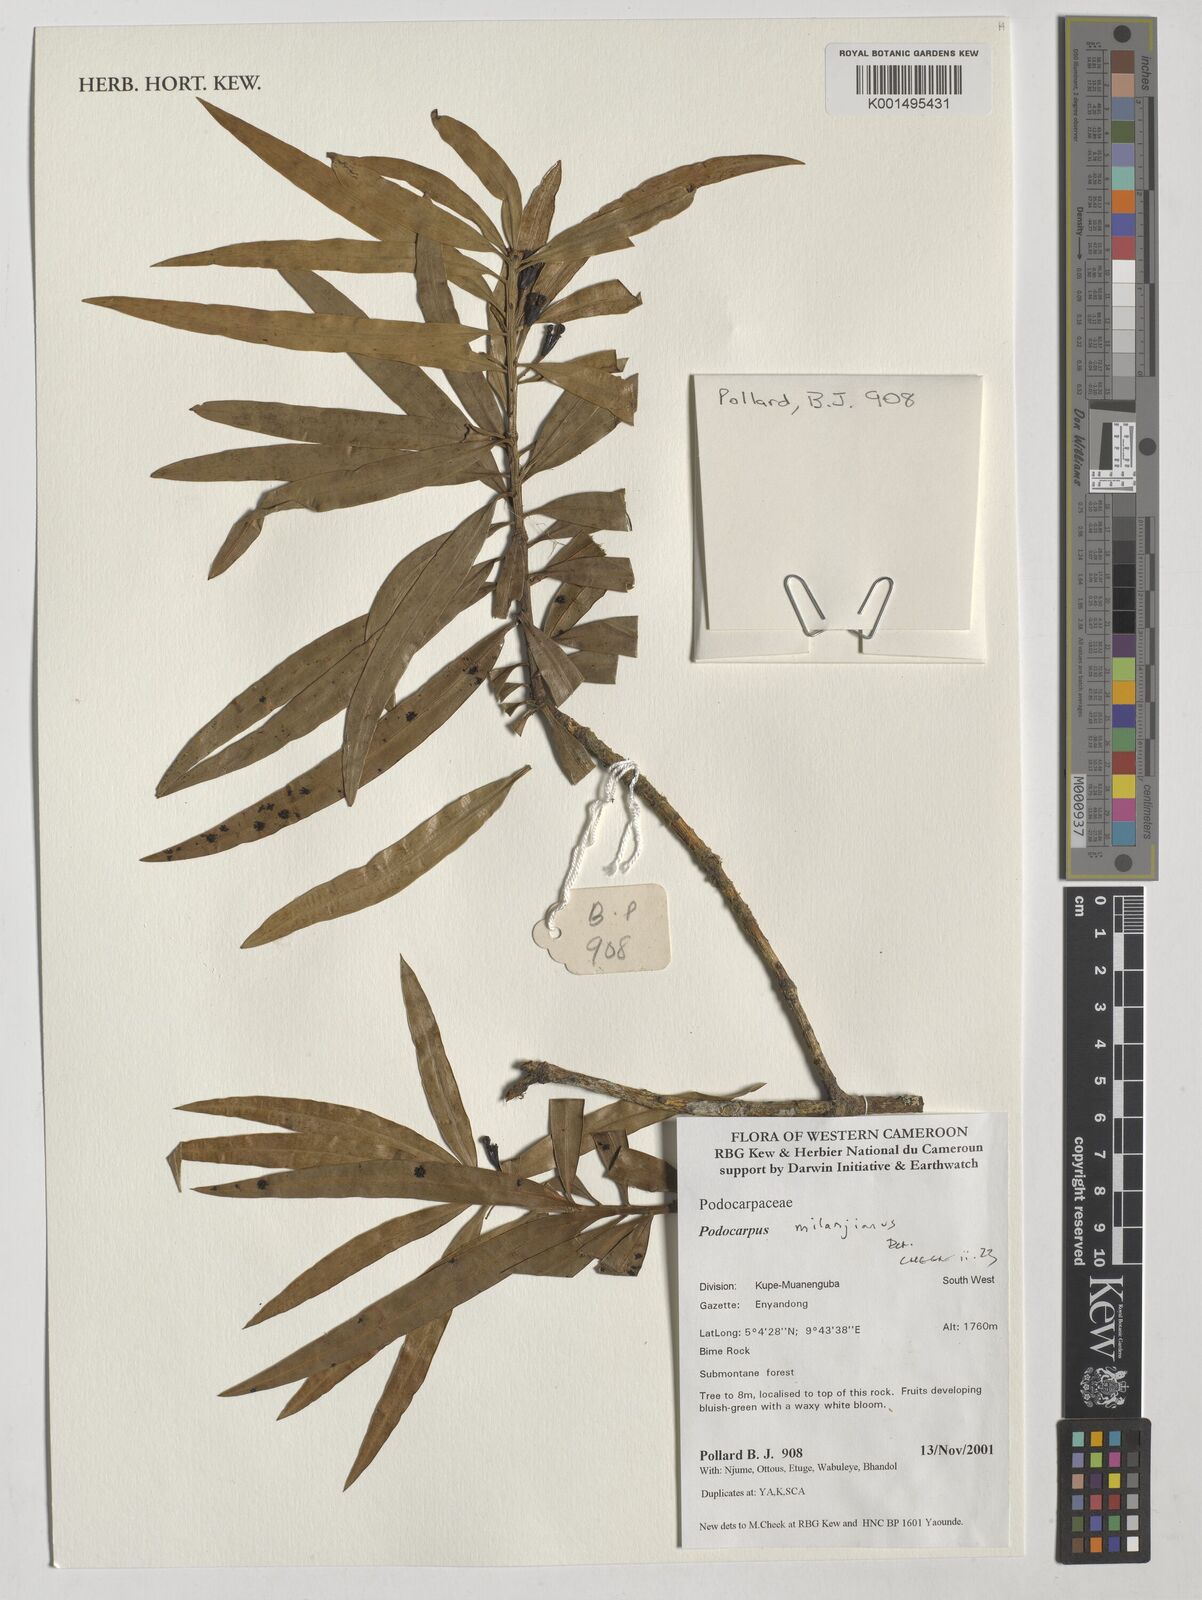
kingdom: Plantae
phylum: Tracheophyta
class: Pinopsida
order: Pinales
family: Podocarpaceae
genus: Podocarpus
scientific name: Podocarpus milanjianus
